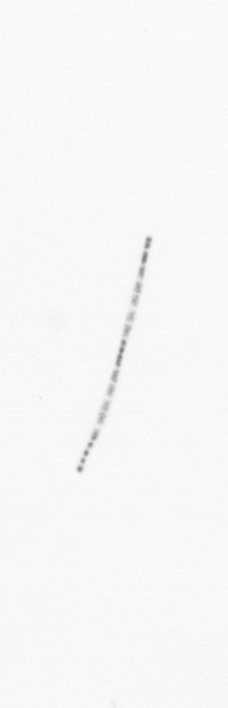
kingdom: Chromista
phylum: Ochrophyta
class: Bacillariophyceae
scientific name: Bacillariophyceae
